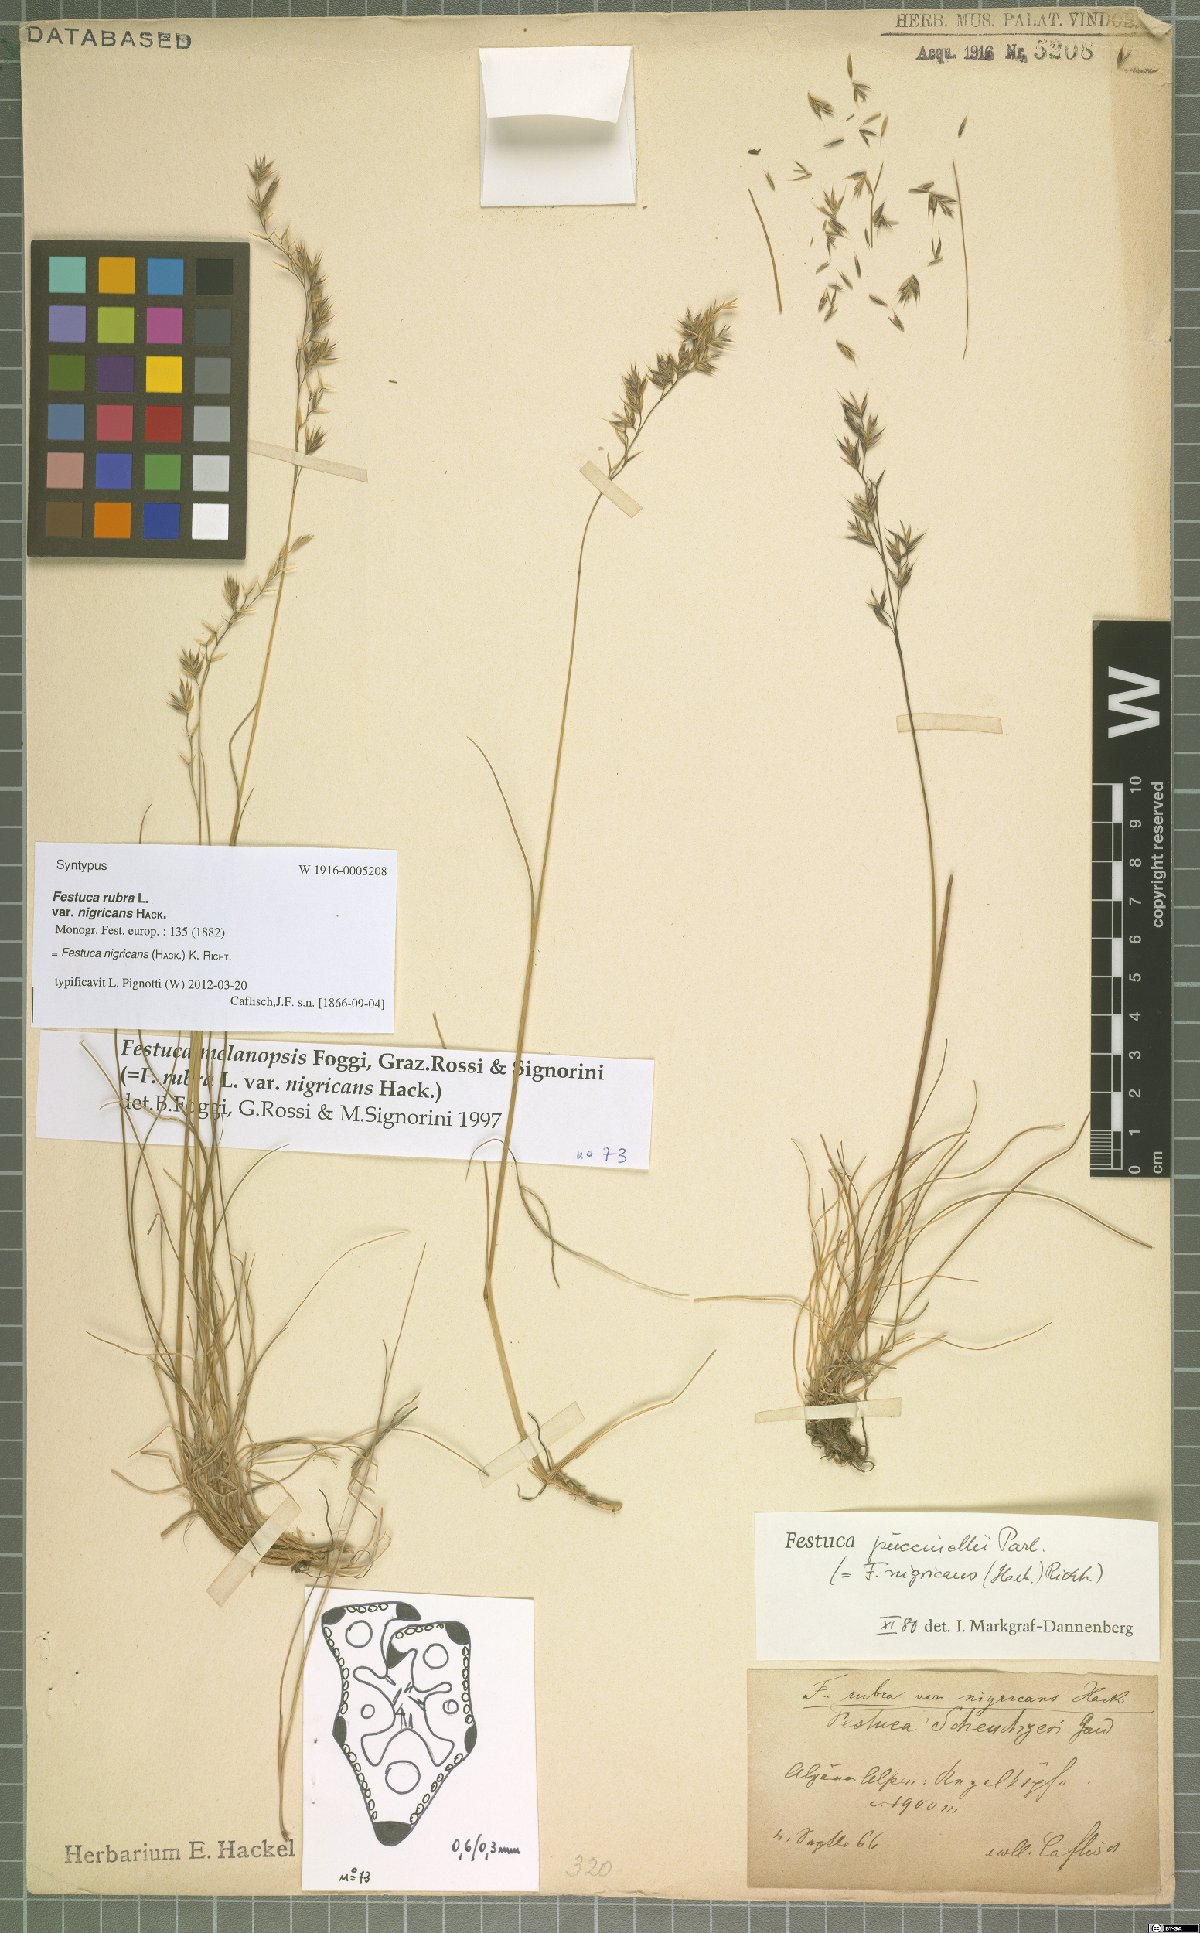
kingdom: Plantae
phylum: Tracheophyta
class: Liliopsida
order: Poales
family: Poaceae
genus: Festuca
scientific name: Festuca violacea
